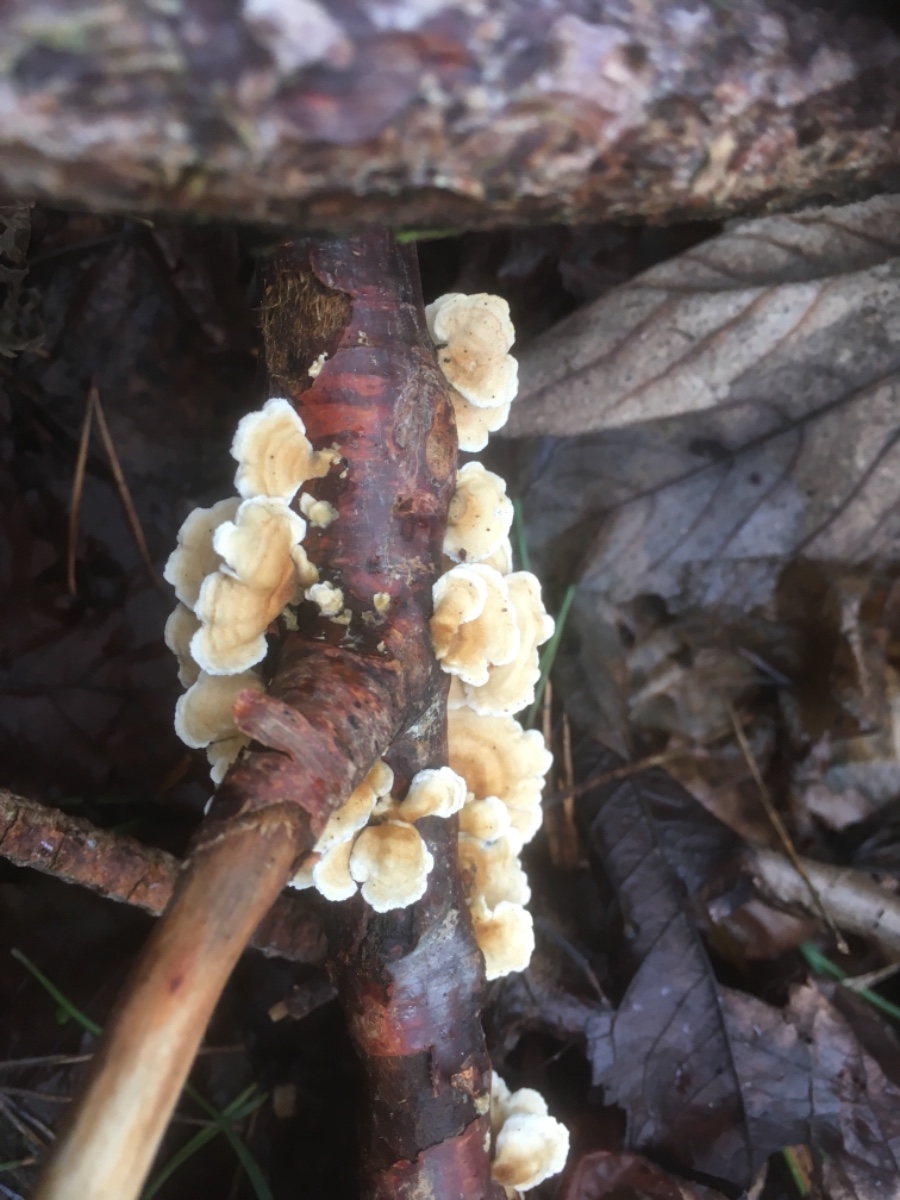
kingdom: Fungi
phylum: Basidiomycota
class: Agaricomycetes
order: Amylocorticiales
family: Amylocorticiaceae
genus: Plicaturopsis
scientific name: Plicaturopsis crispa
